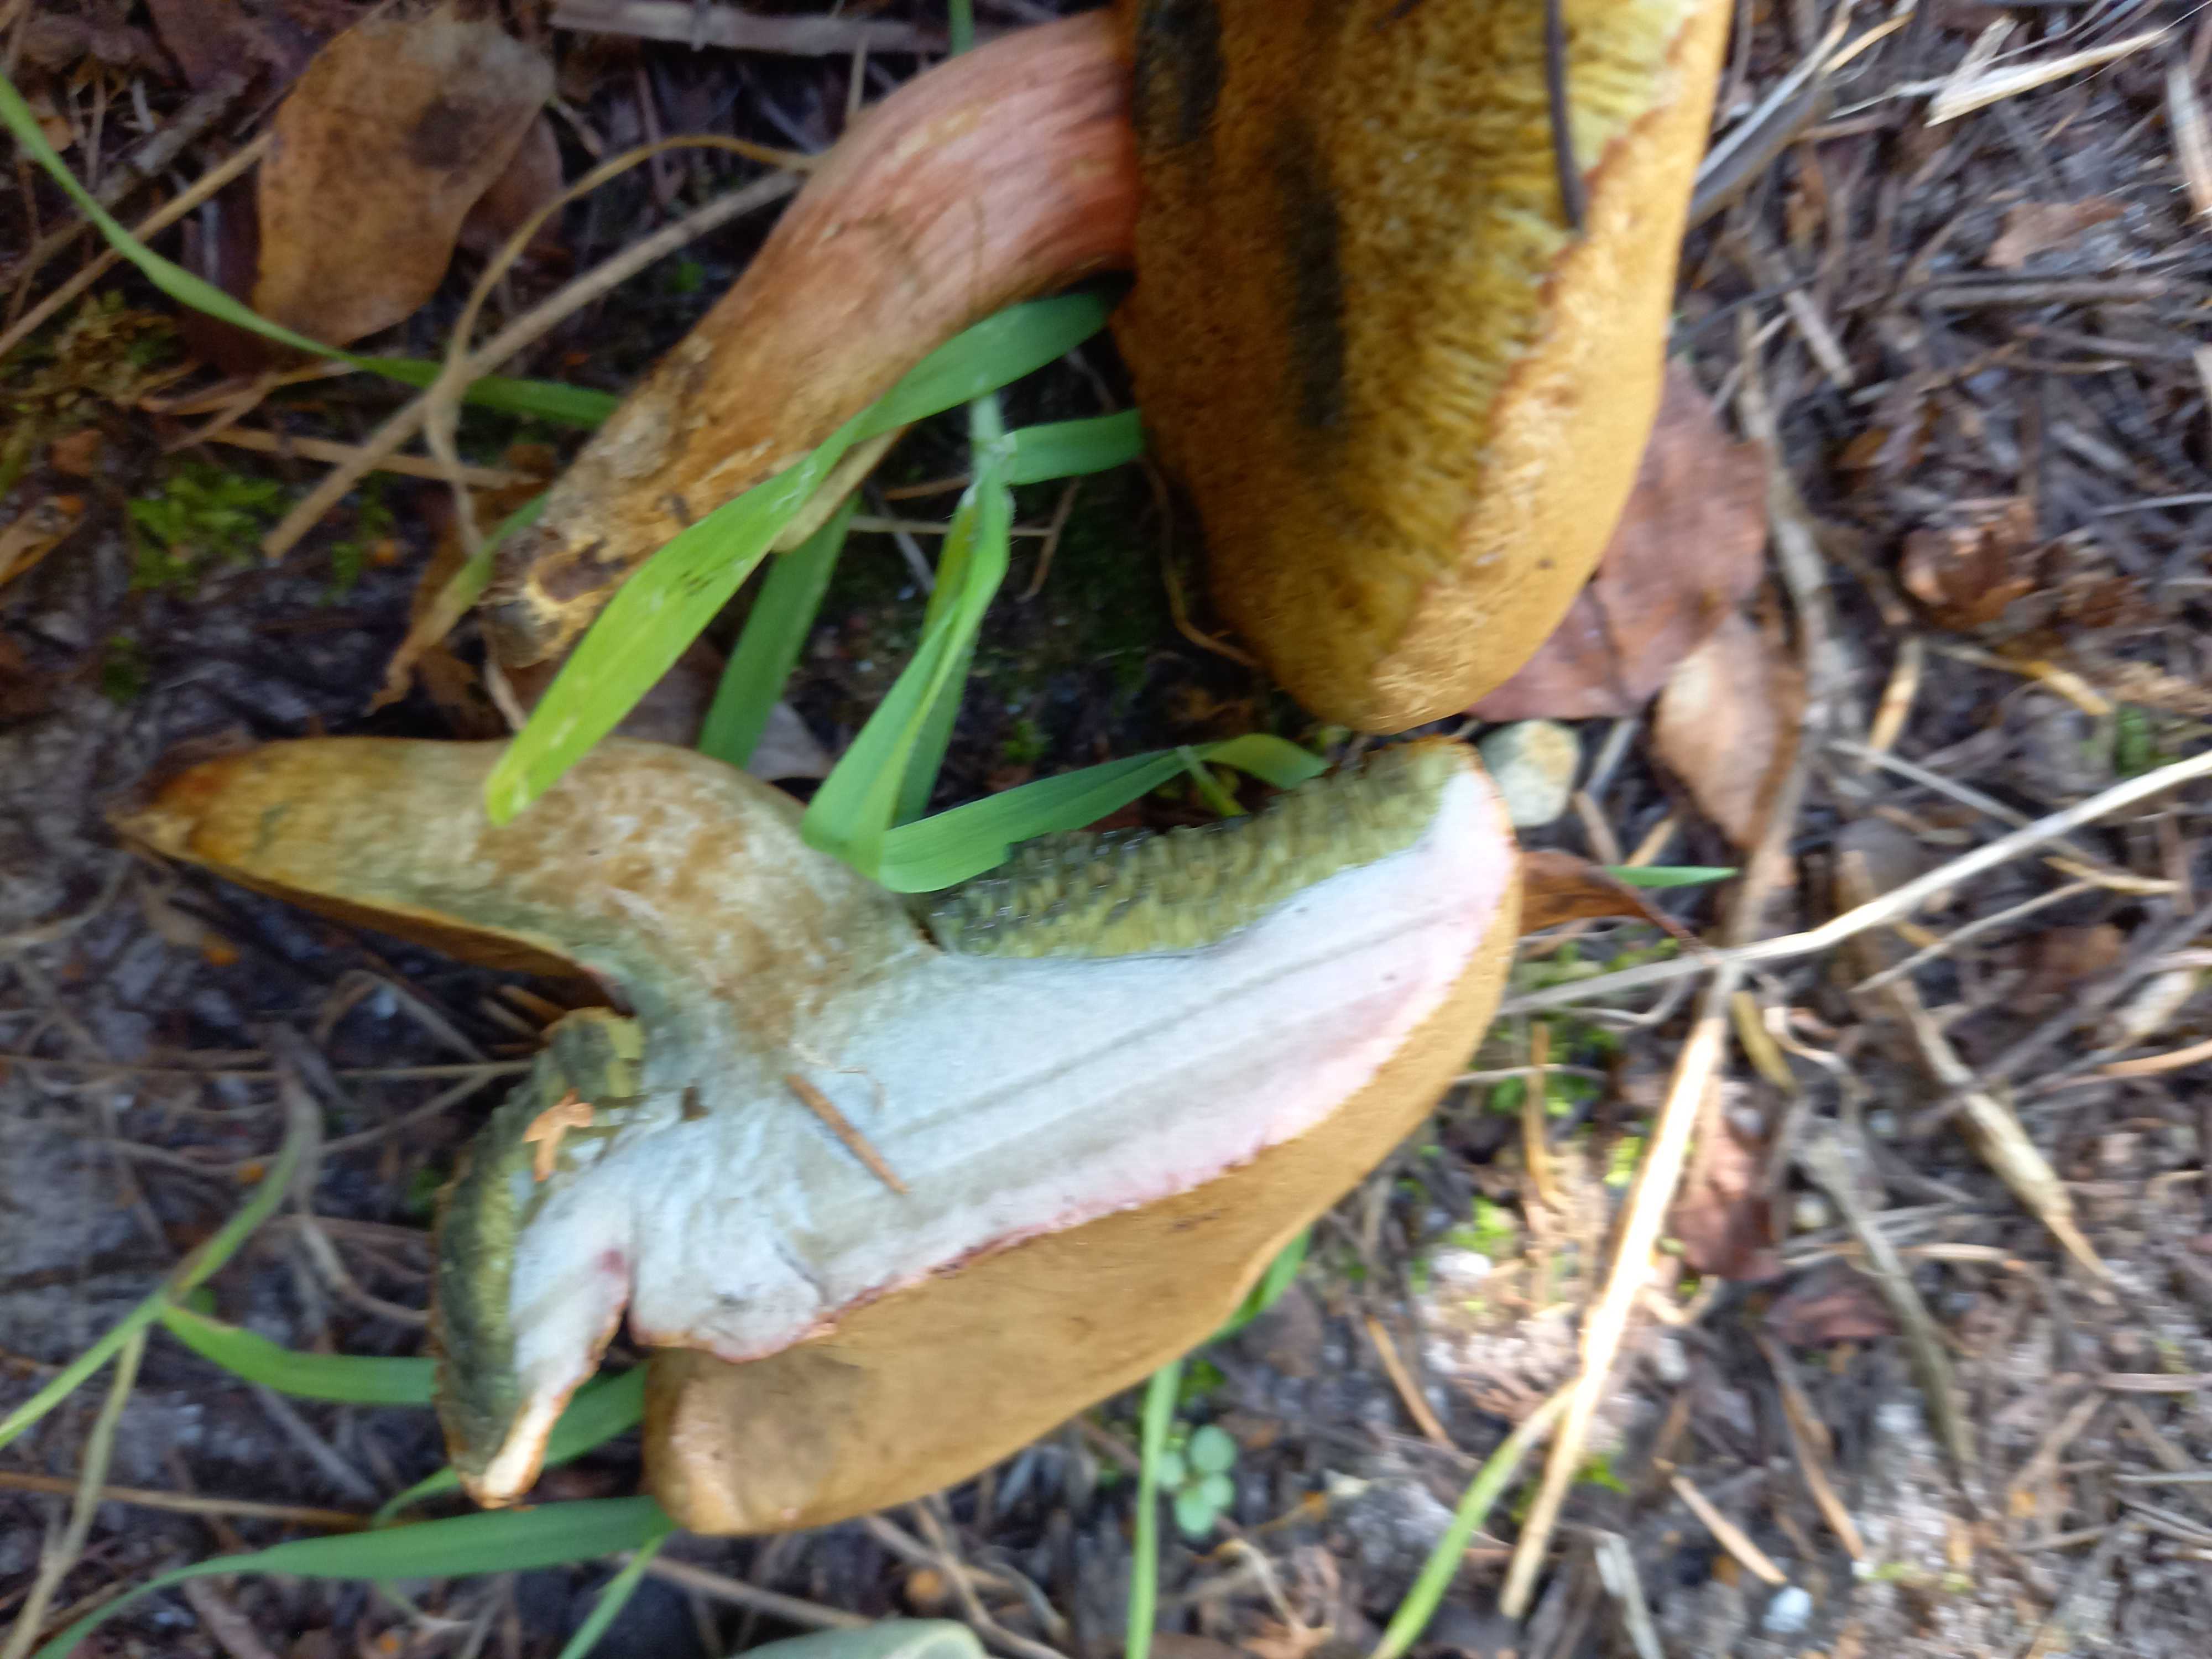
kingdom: Fungi
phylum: Basidiomycota
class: Agaricomycetes
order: Boletales
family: Boletaceae
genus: Hortiboletus
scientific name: Hortiboletus bubalinus
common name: aurora-rørhat
